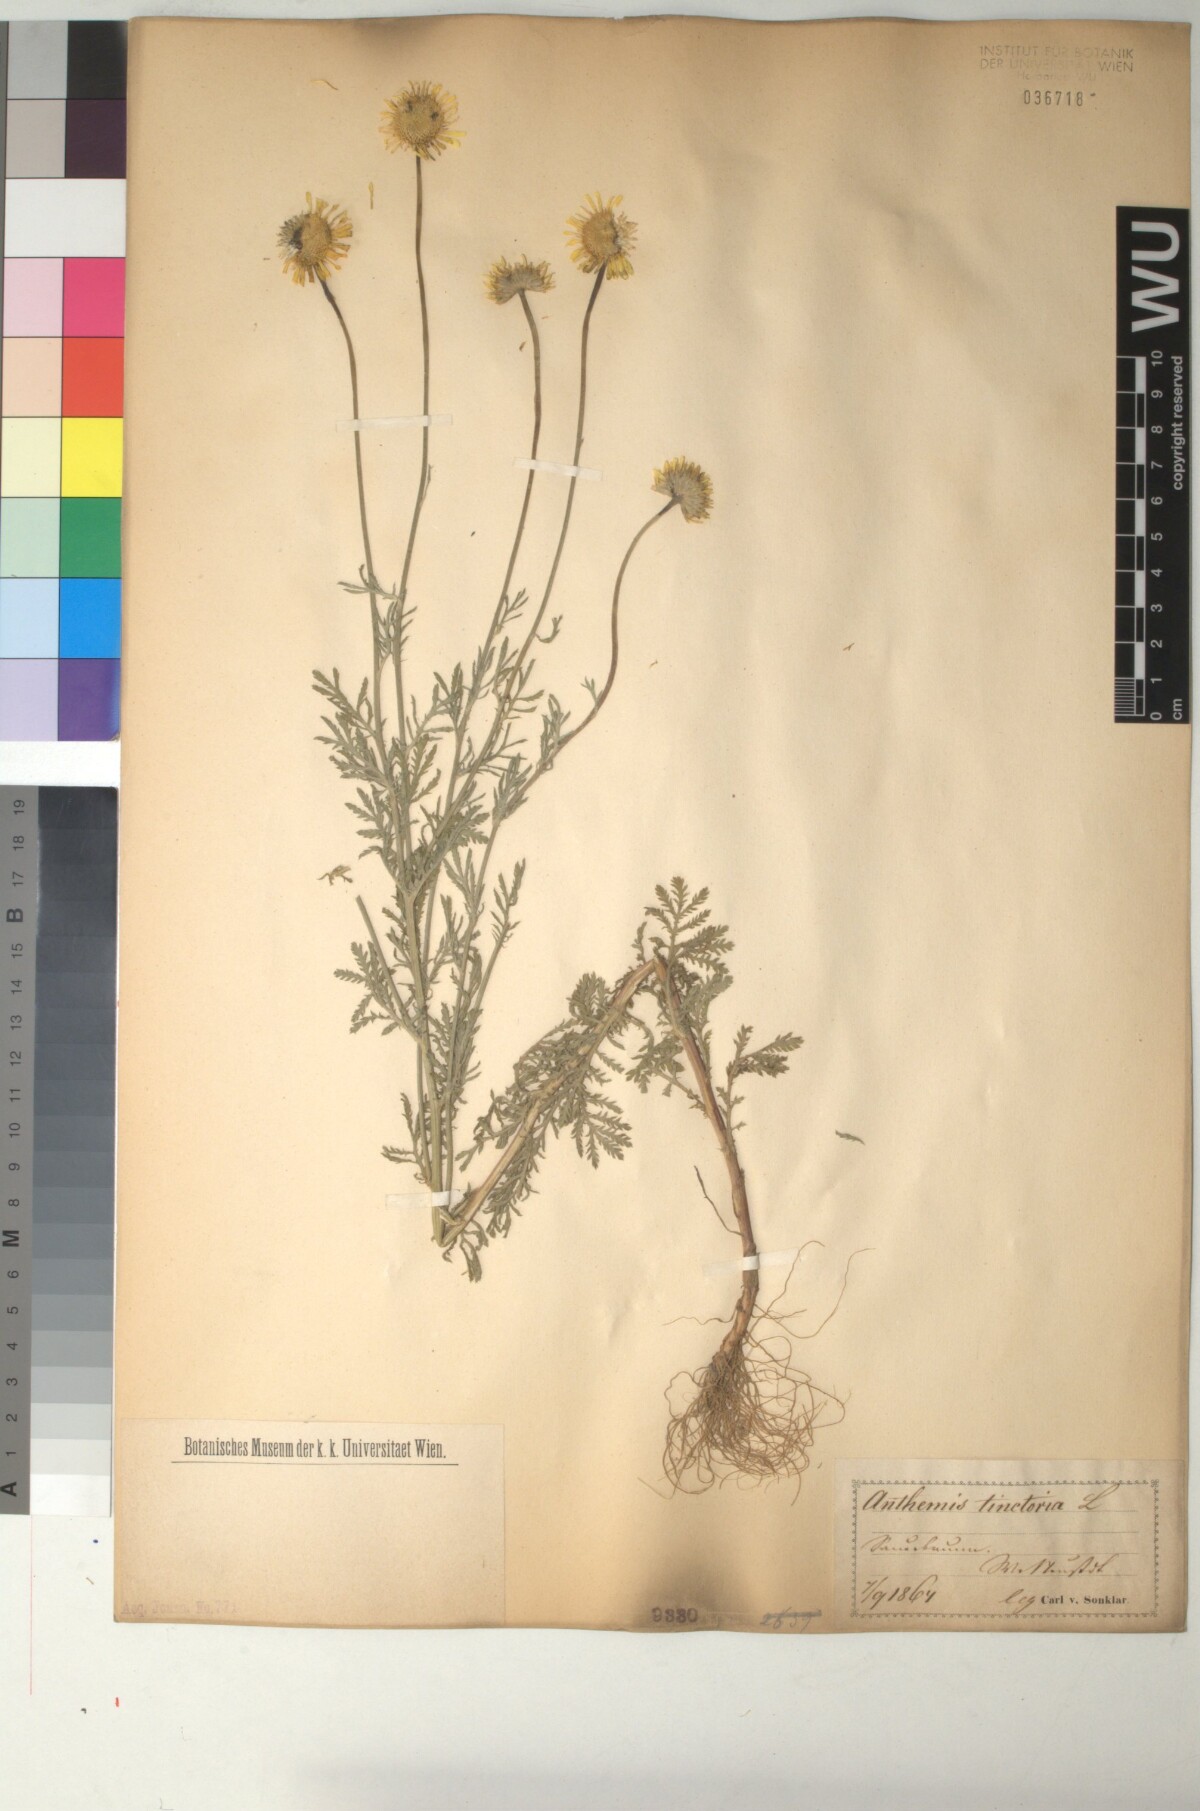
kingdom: Plantae
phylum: Tracheophyta
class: Magnoliopsida
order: Asterales
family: Asteraceae
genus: Cota
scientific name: Cota tinctoria
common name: Golden chamomile
